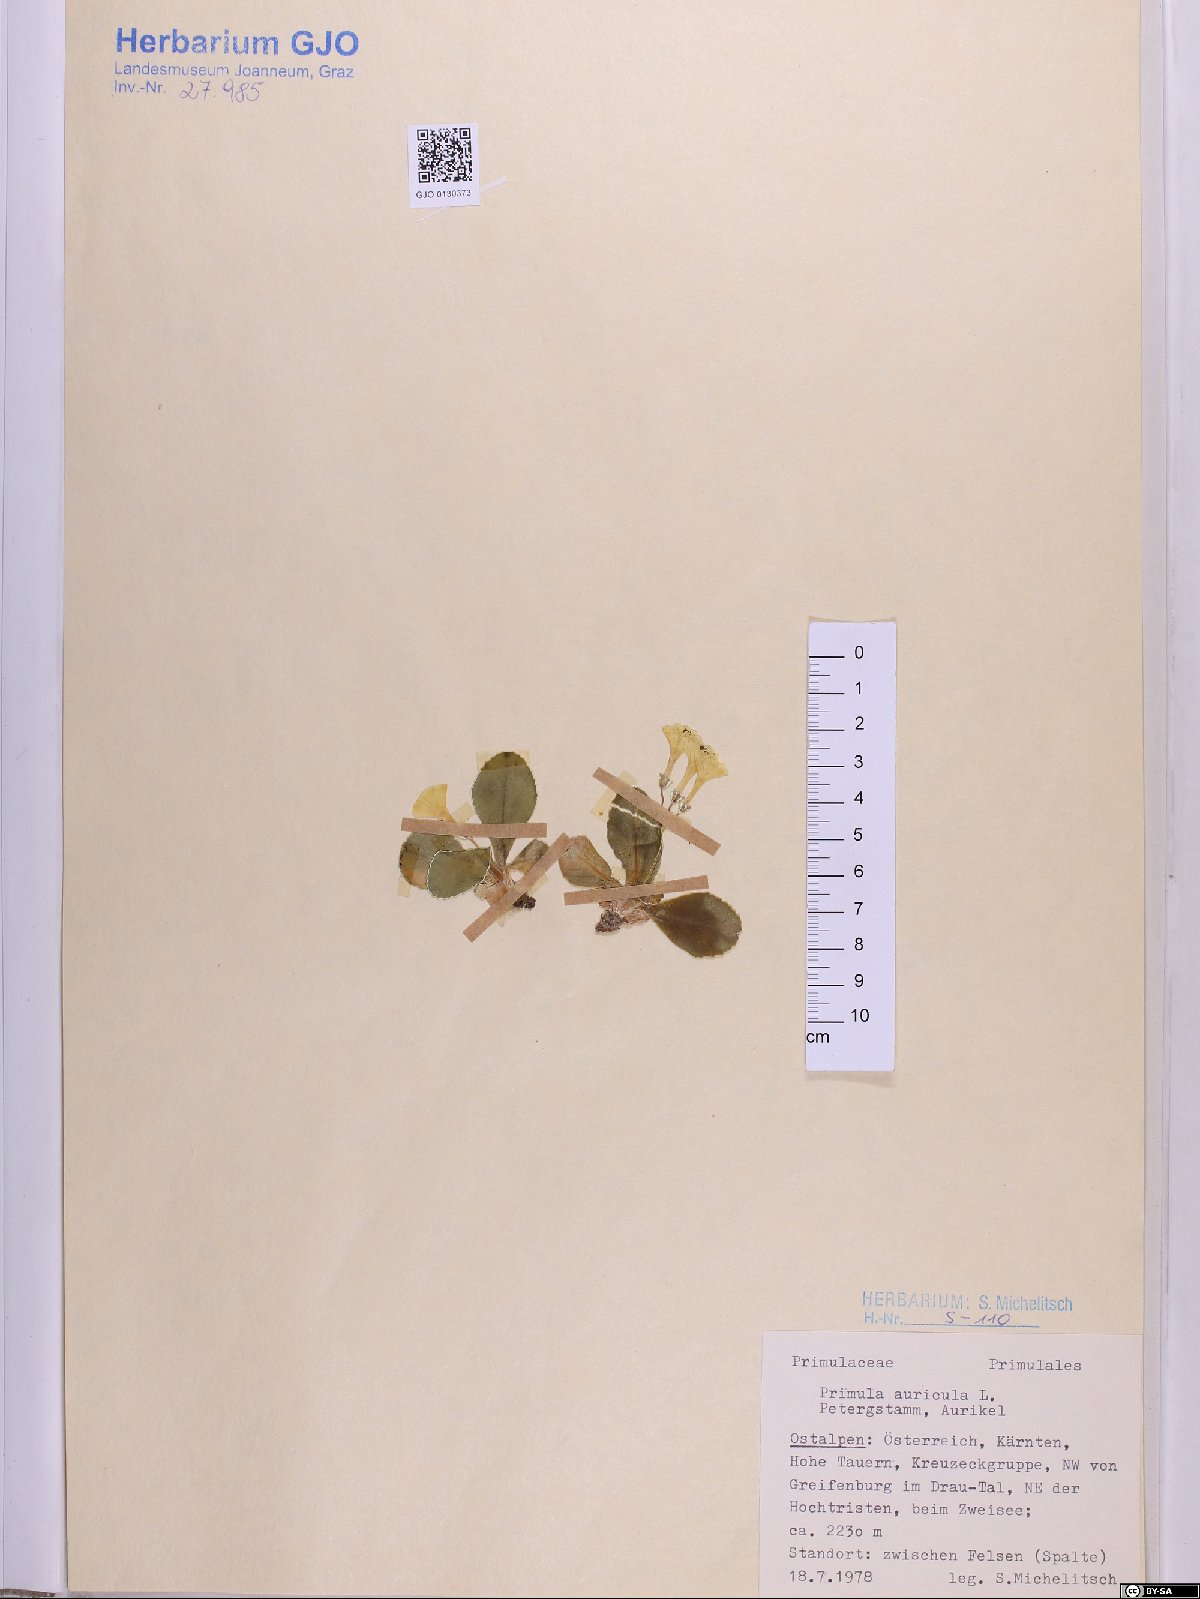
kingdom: Plantae
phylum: Tracheophyta
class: Magnoliopsida
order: Ericales
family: Primulaceae
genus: Primula
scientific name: Primula auricula
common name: Auricula
